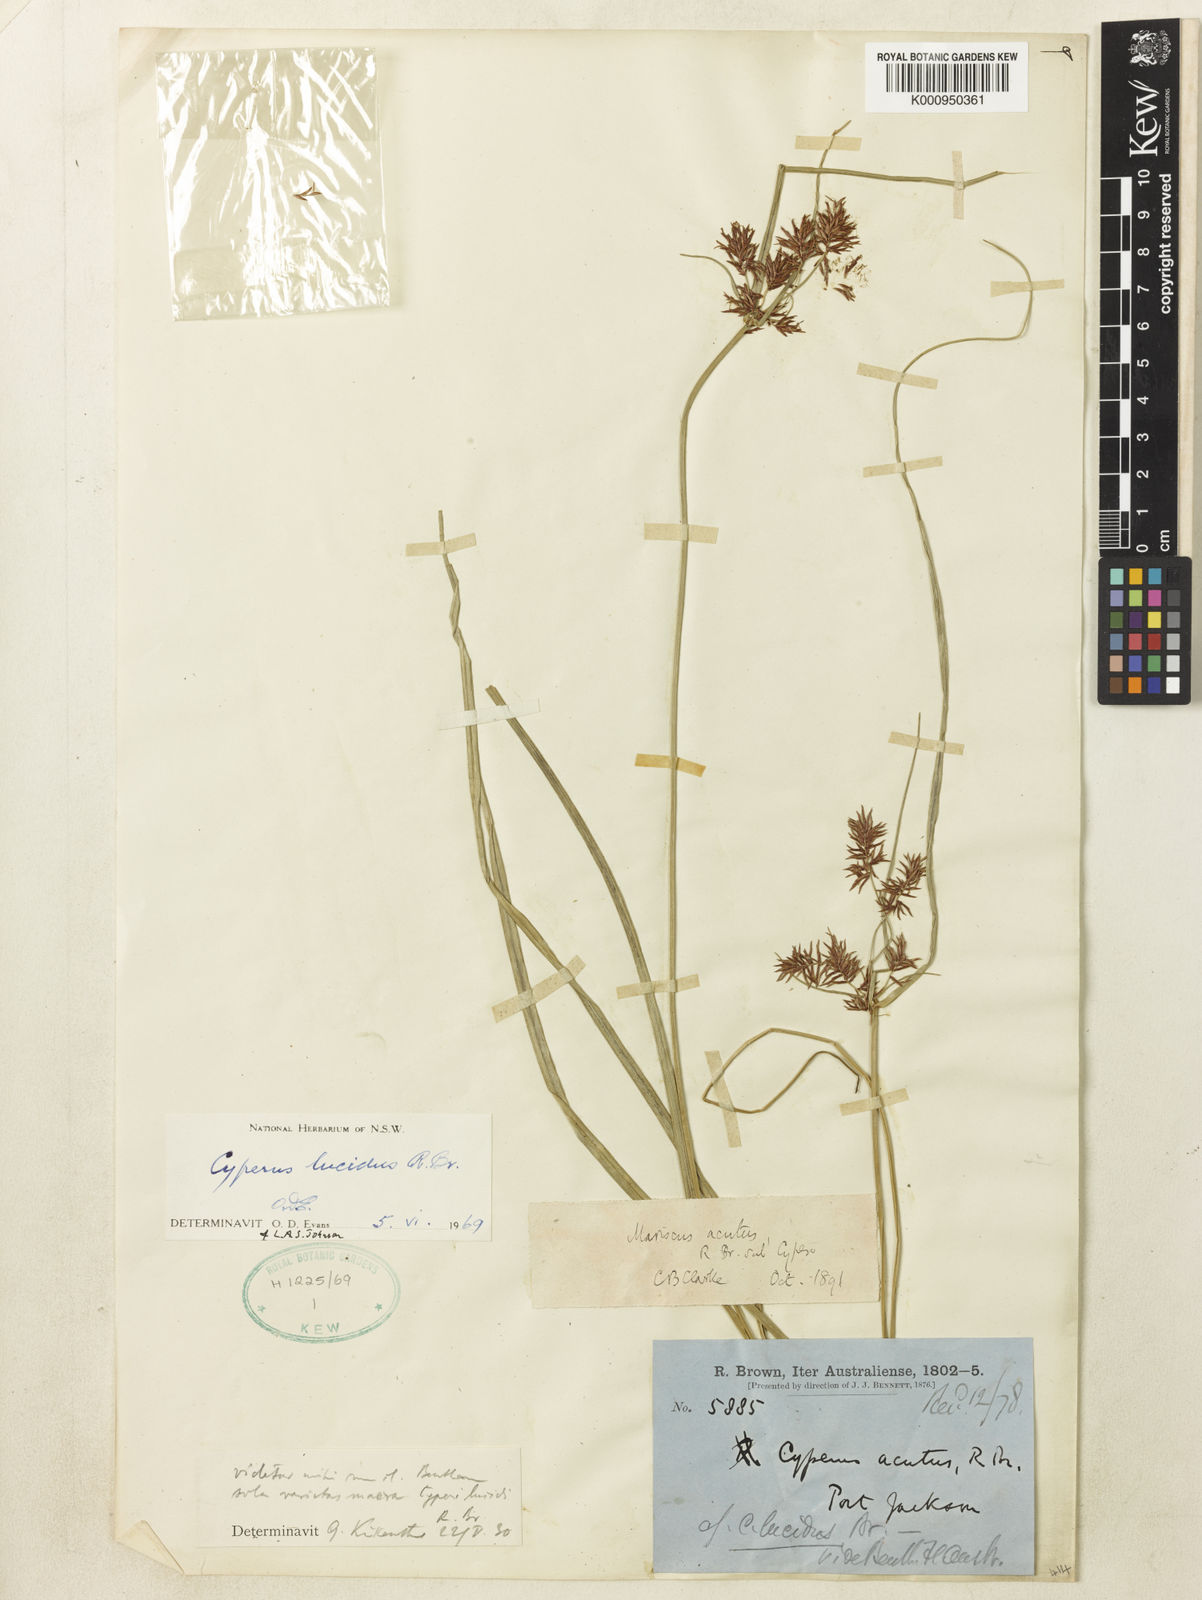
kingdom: Plantae
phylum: Tracheophyta
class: Liliopsida
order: Poales
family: Cyperaceae
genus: Cyperus
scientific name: Cyperus lucidus
